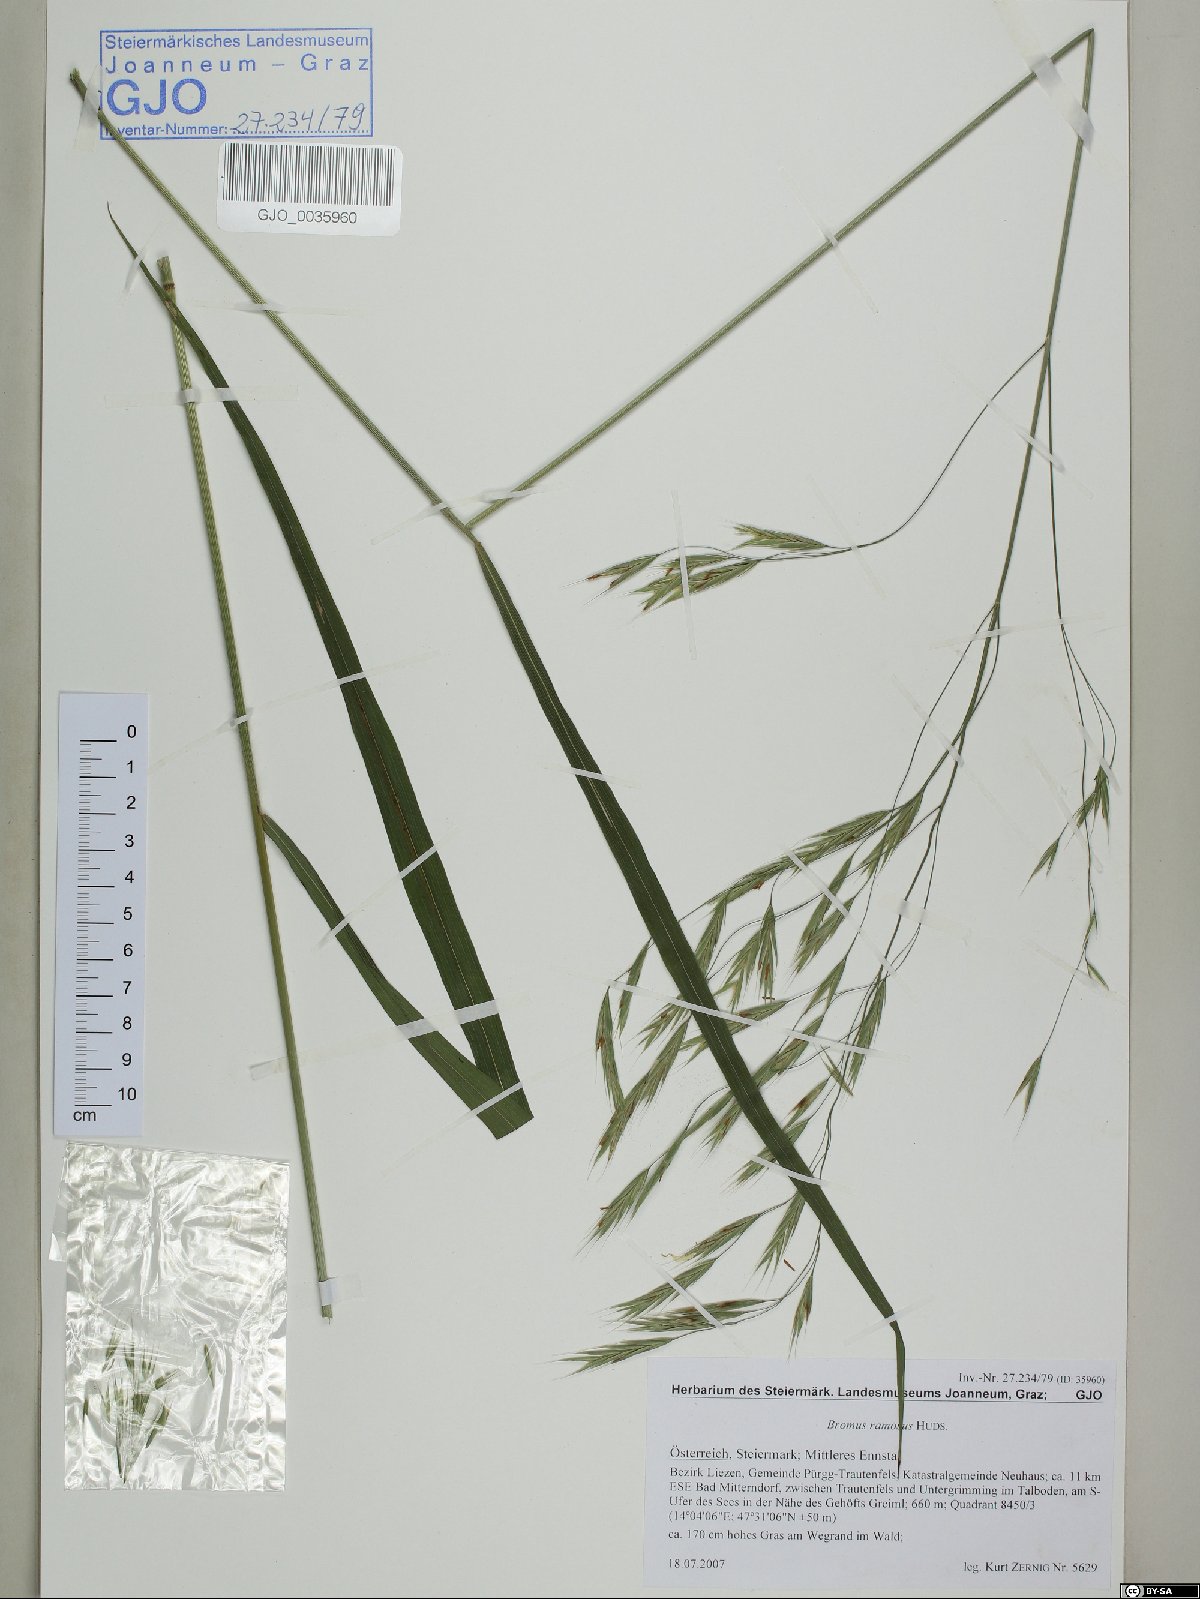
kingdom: Plantae
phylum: Tracheophyta
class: Liliopsida
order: Poales
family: Poaceae
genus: Bromus
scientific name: Bromus ramosus
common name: Hairy brome
